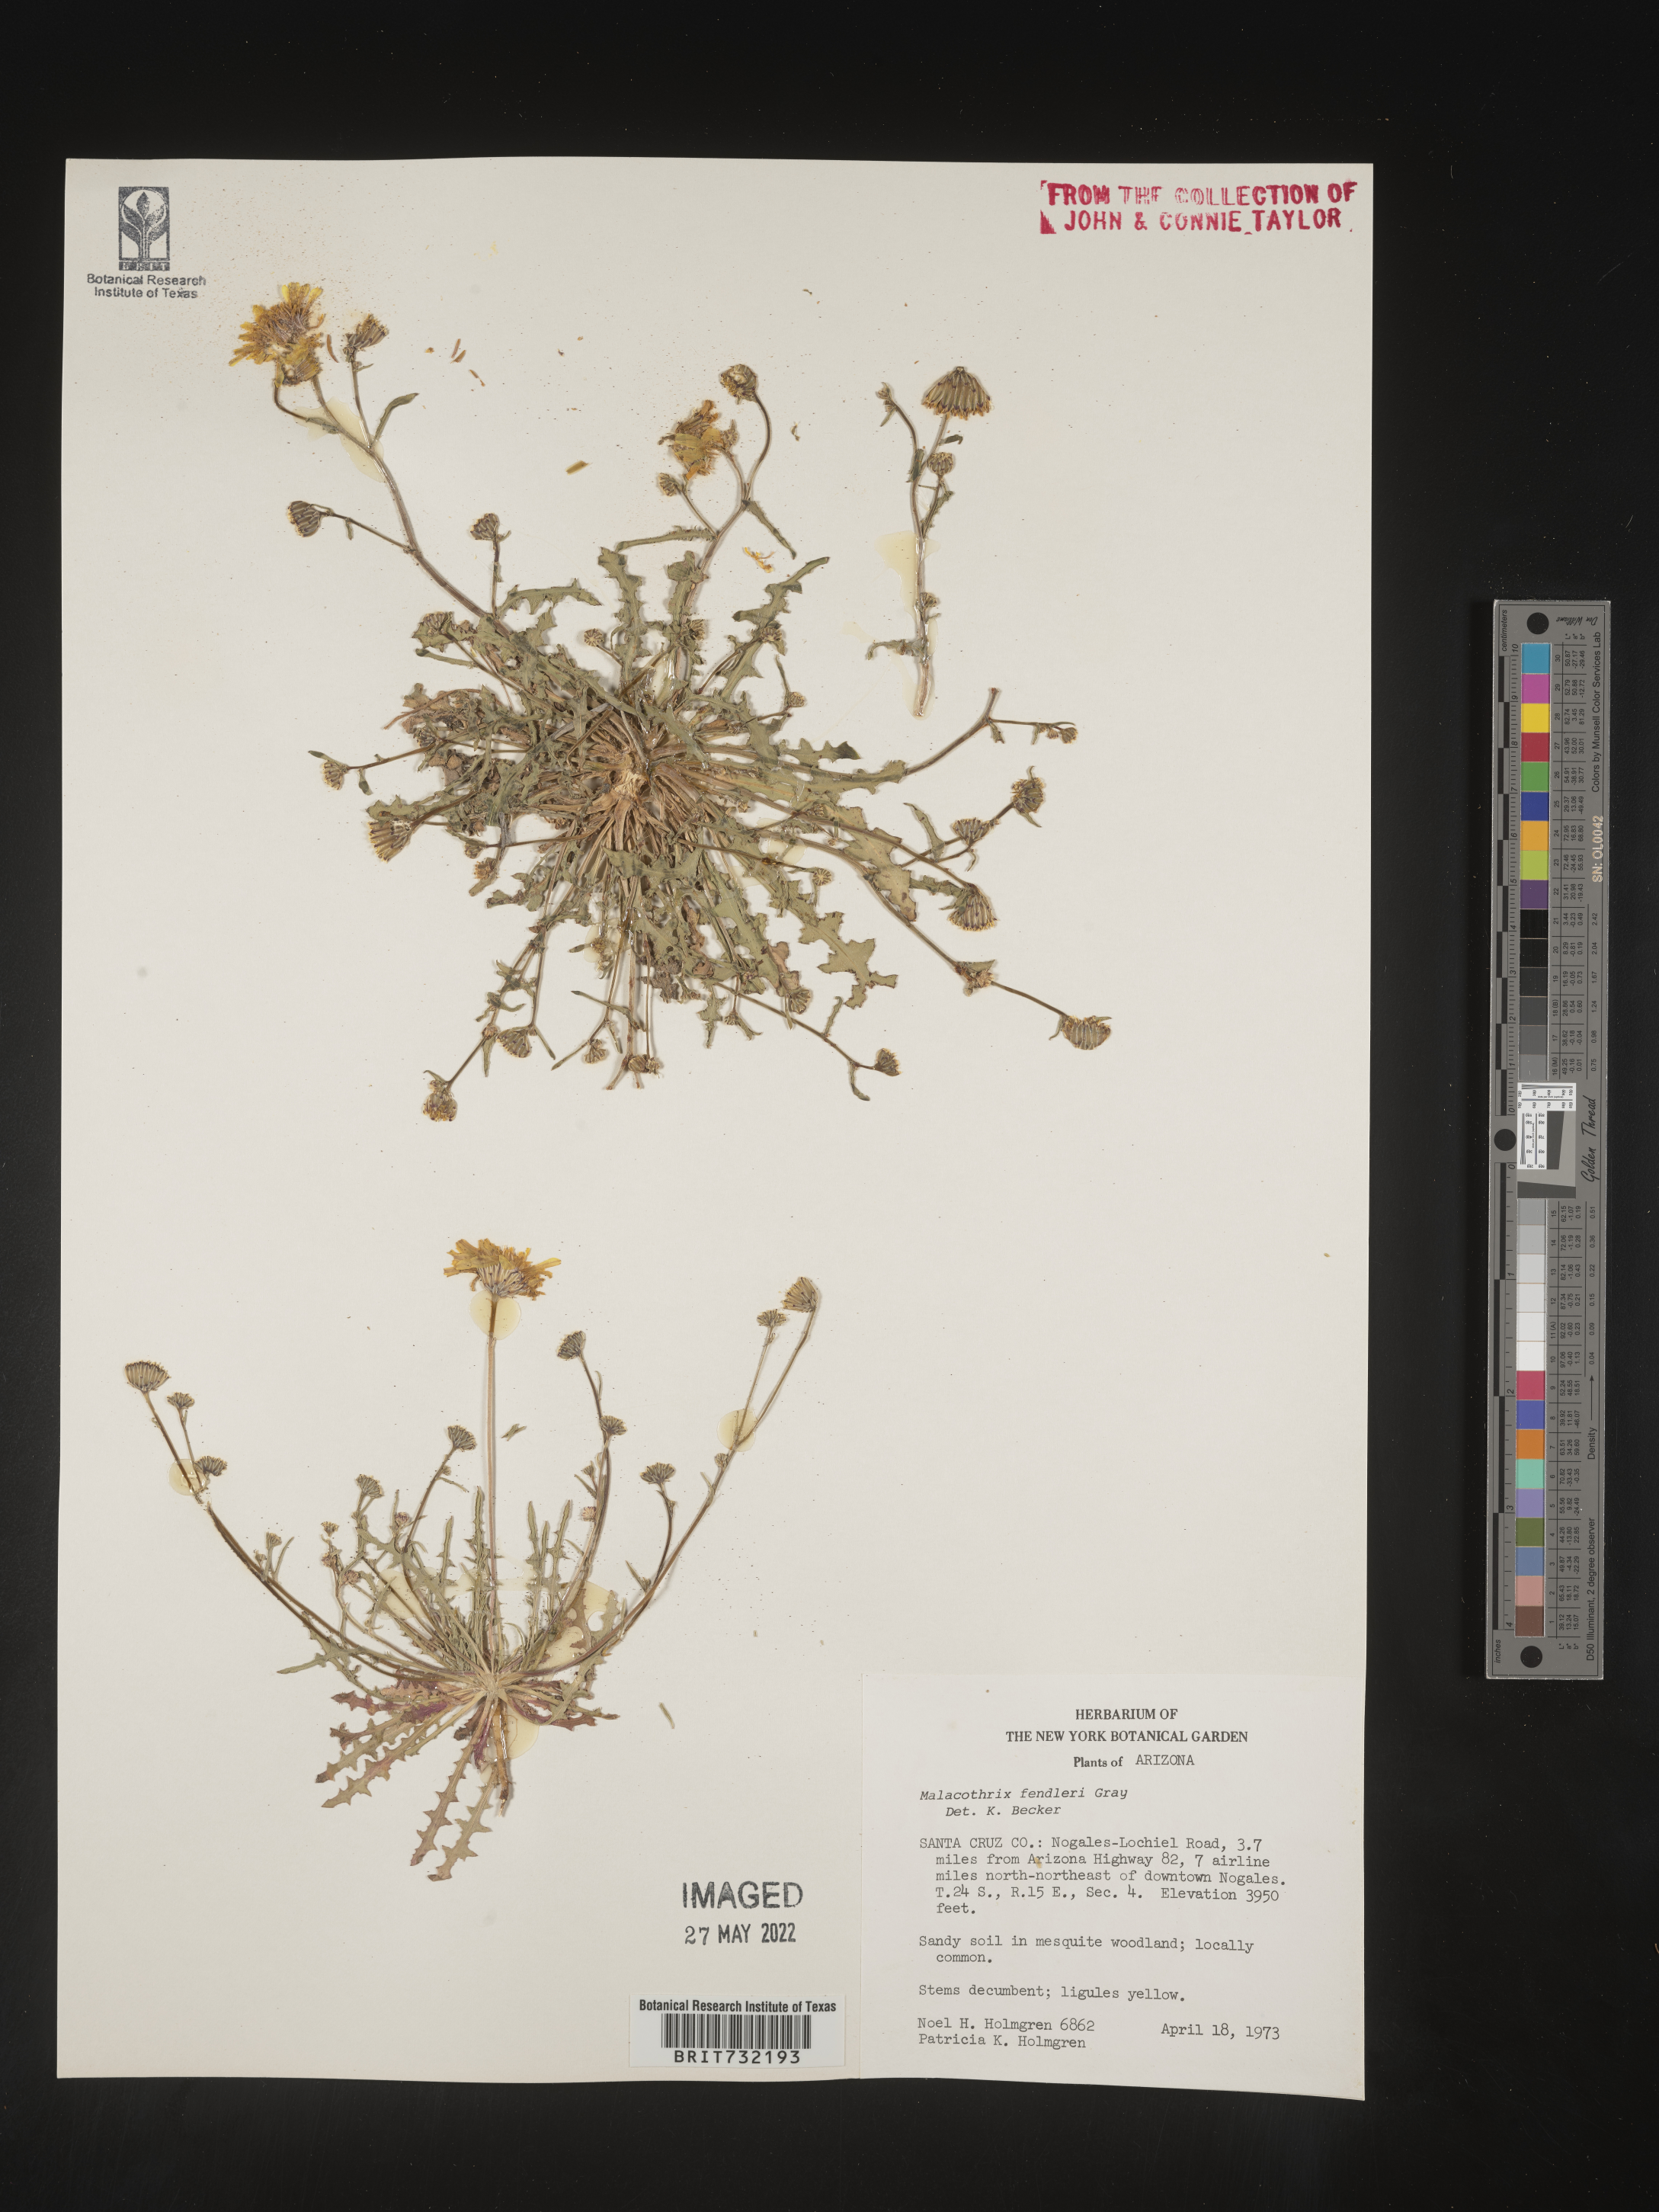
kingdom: Plantae
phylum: Tracheophyta
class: Magnoliopsida
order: Asterales
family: Asteraceae
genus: Malacothrix
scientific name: Malacothrix
